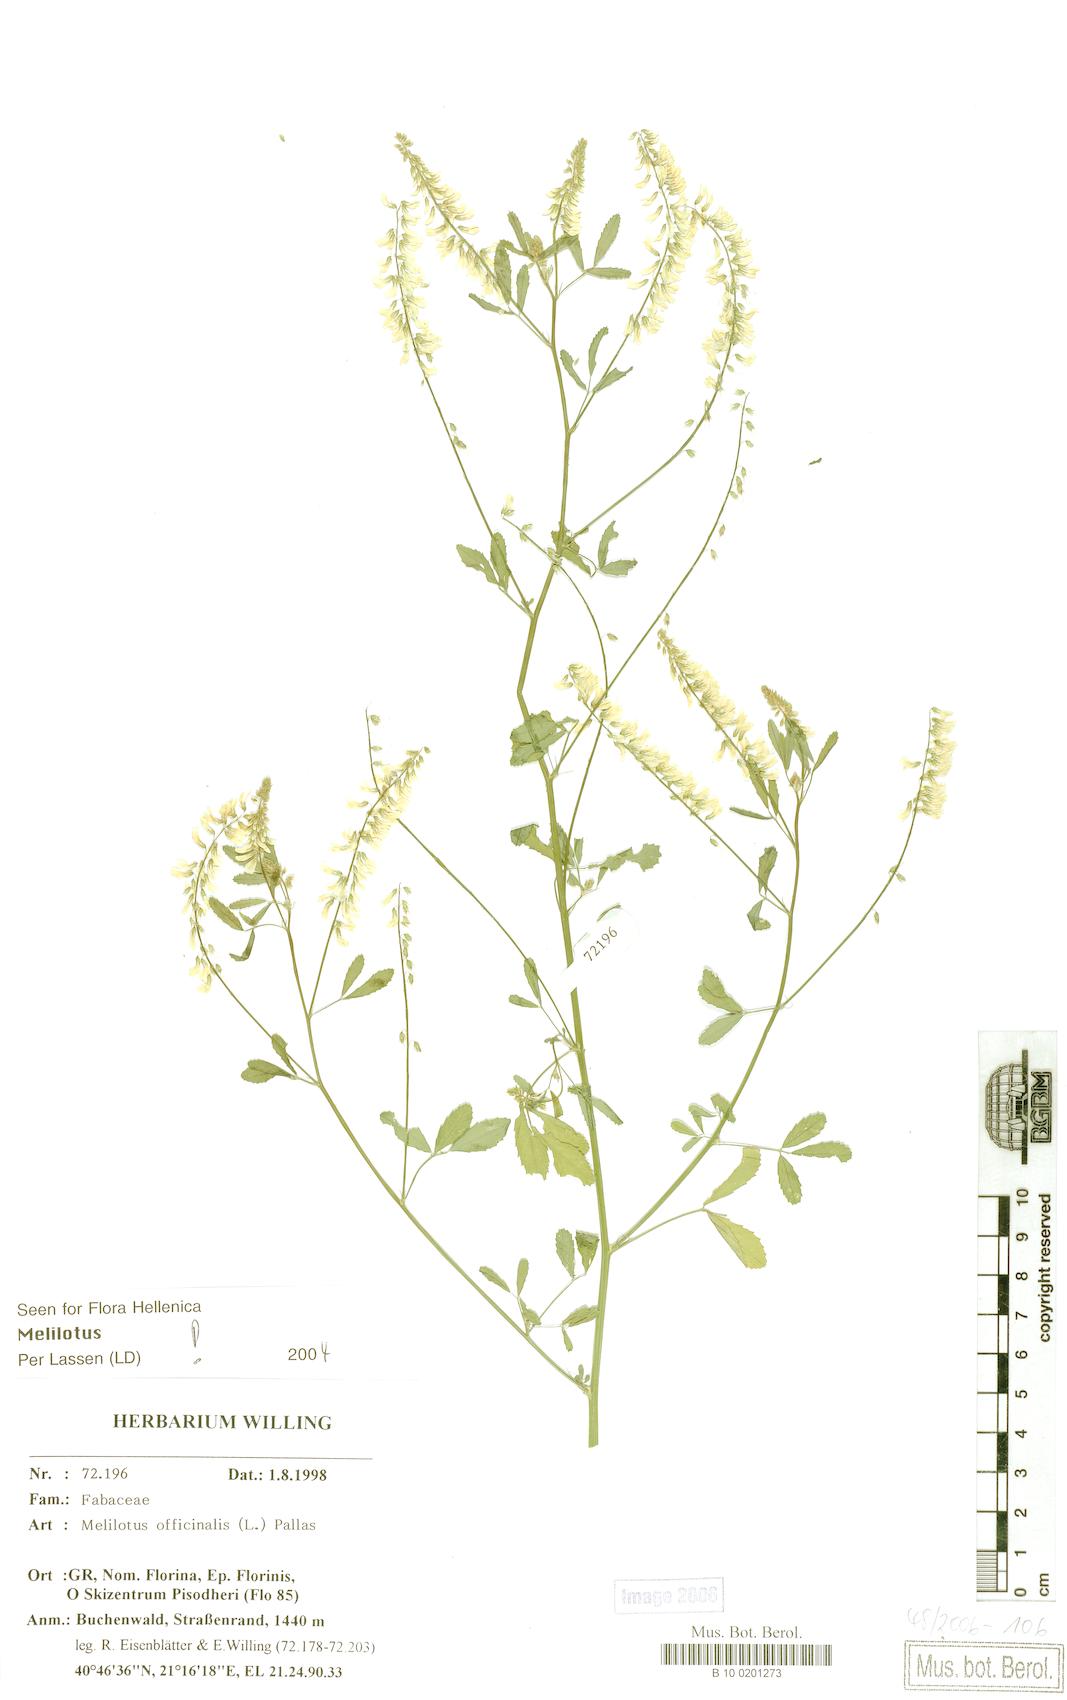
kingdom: Plantae
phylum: Tracheophyta
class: Magnoliopsida
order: Fabales
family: Fabaceae
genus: Melilotus
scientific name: Melilotus officinalis
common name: Sweetclover
